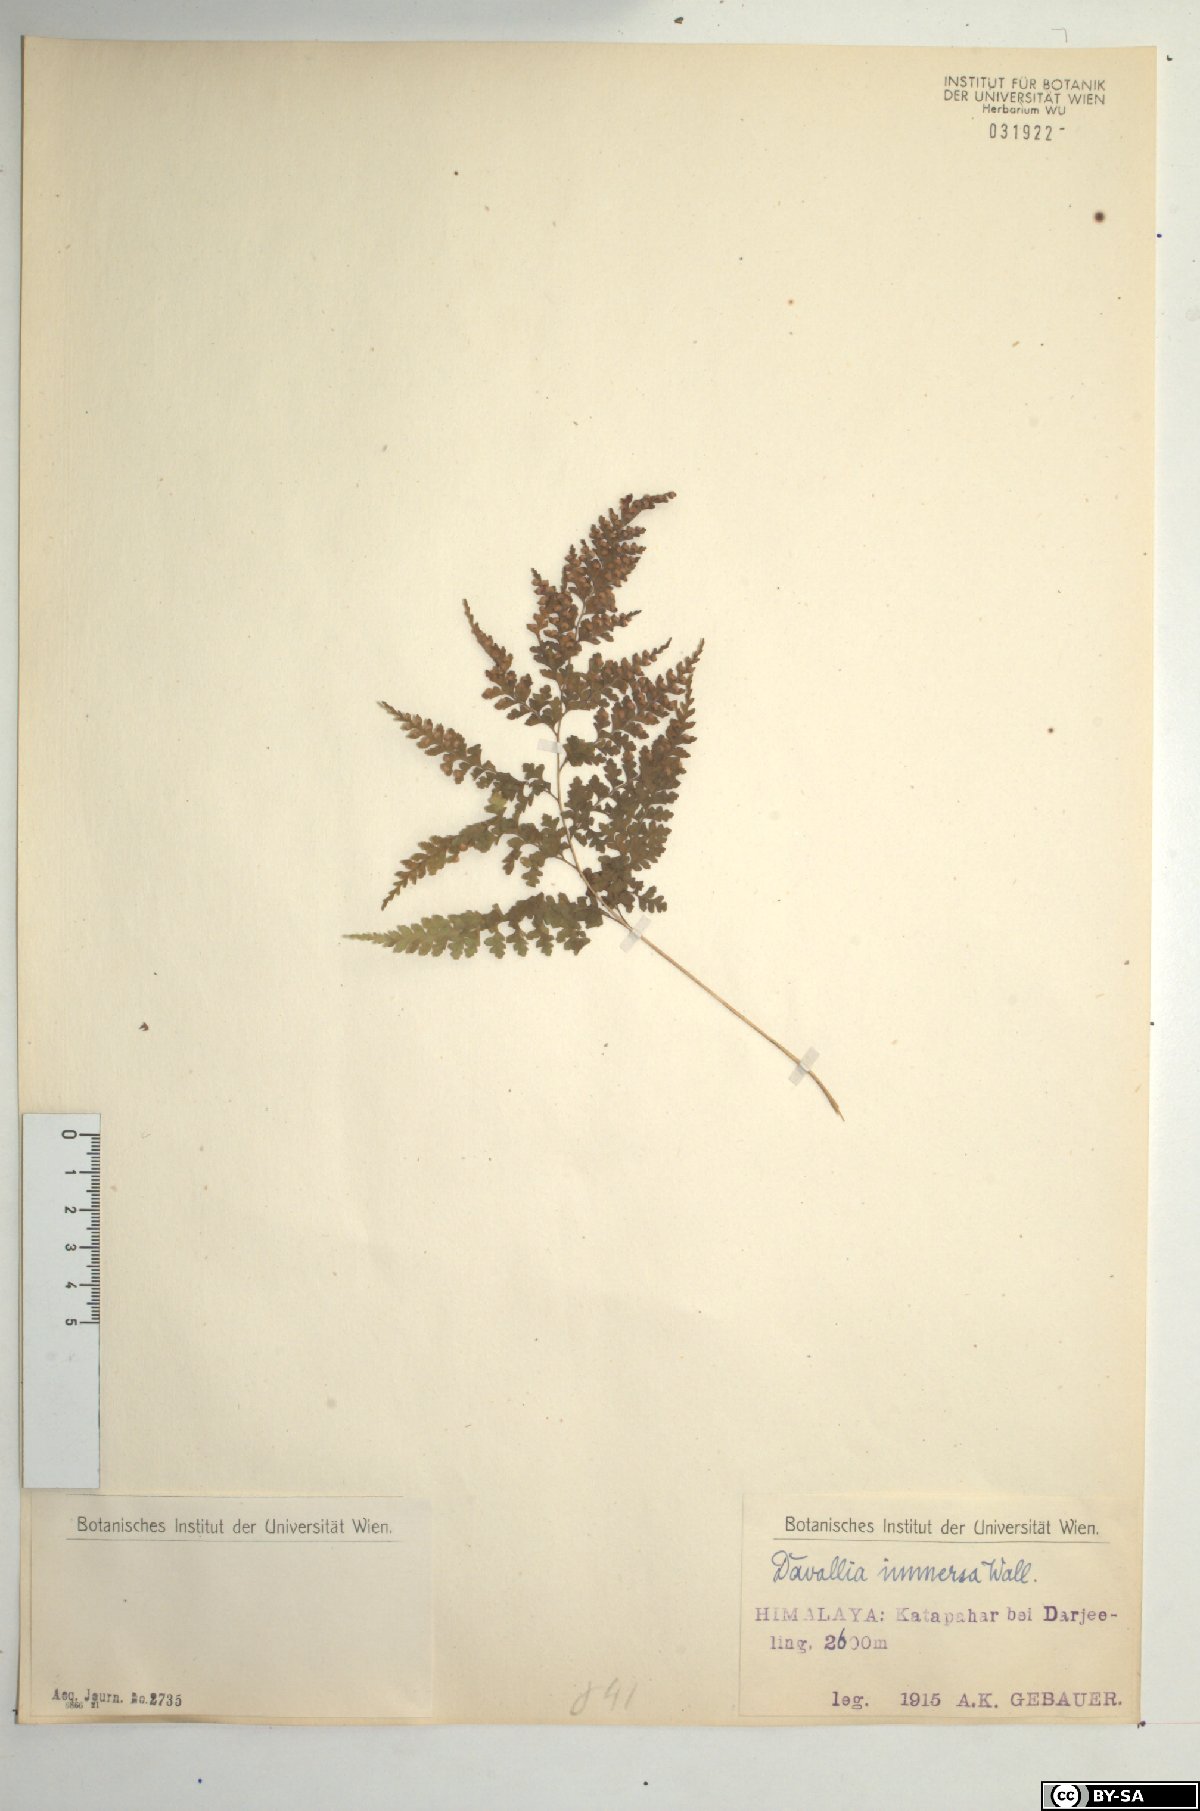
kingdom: Plantae
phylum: Tracheophyta
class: Polypodiopsida
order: Polypodiales
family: Hypodematiaceae
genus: Leucostegia
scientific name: Leucostegia immersa
